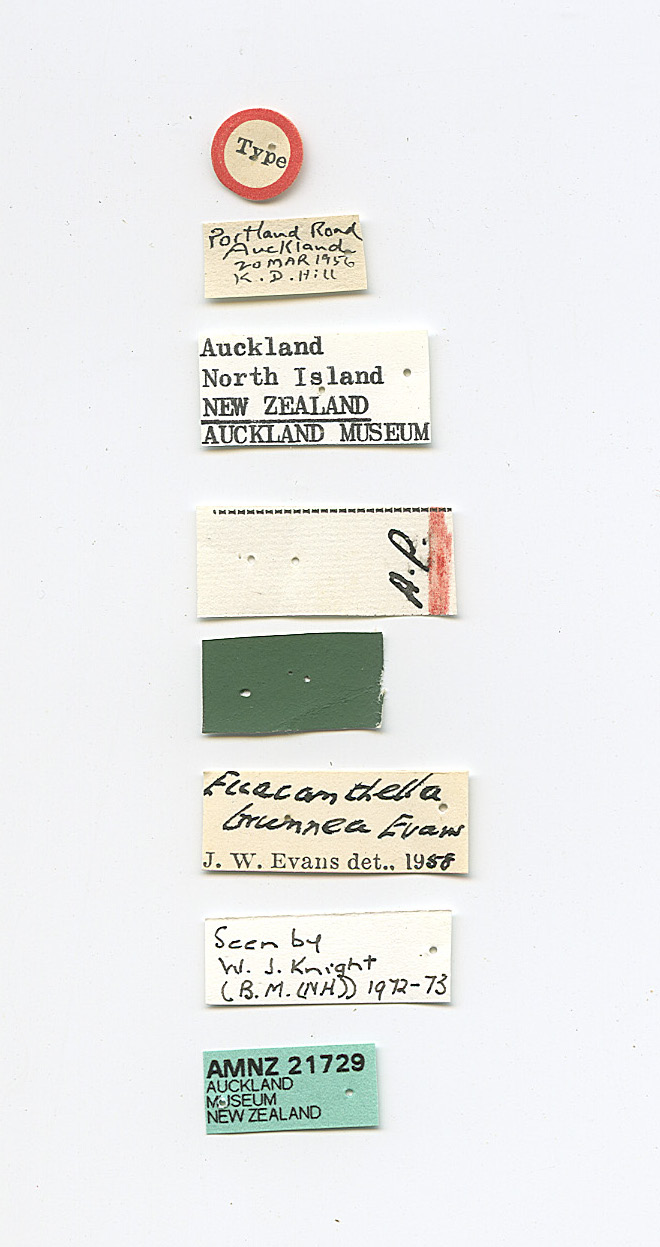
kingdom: Animalia
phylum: Arthropoda
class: Insecta
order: Hemiptera
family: Cicadellidae
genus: Euacanthella
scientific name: Euacanthella palustris
